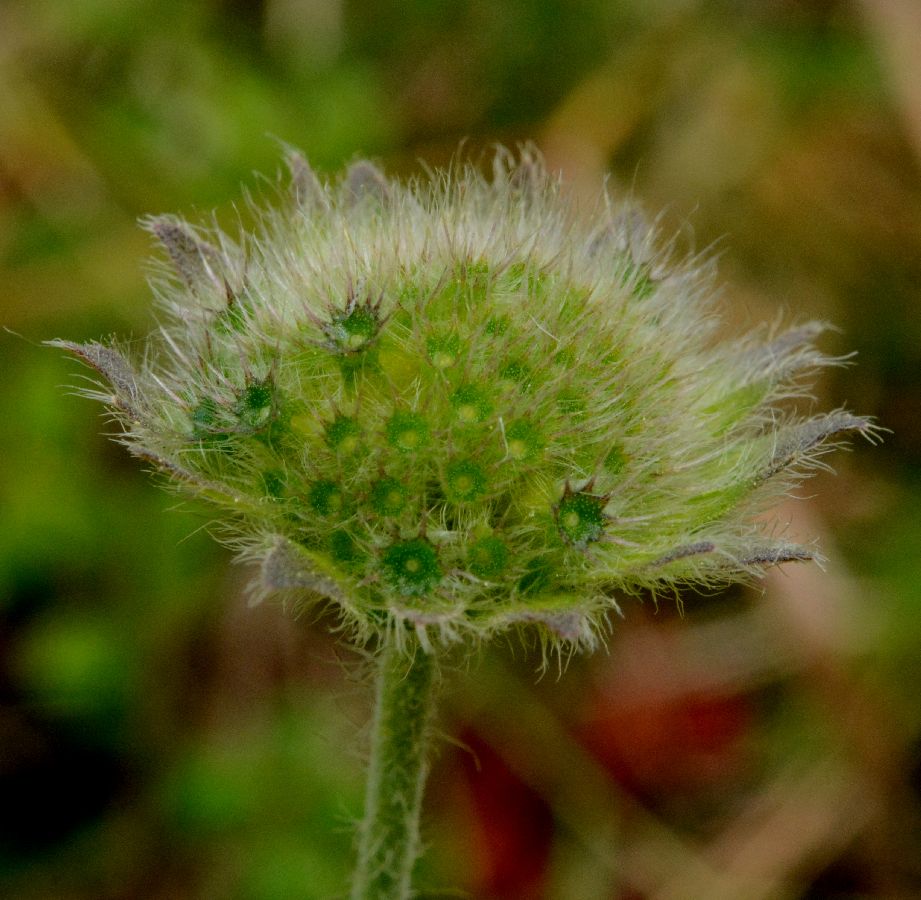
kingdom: Plantae
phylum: Tracheophyta
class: Magnoliopsida
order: Dipsacales
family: Caprifoliaceae
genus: Knautia
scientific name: Knautia arvensis
